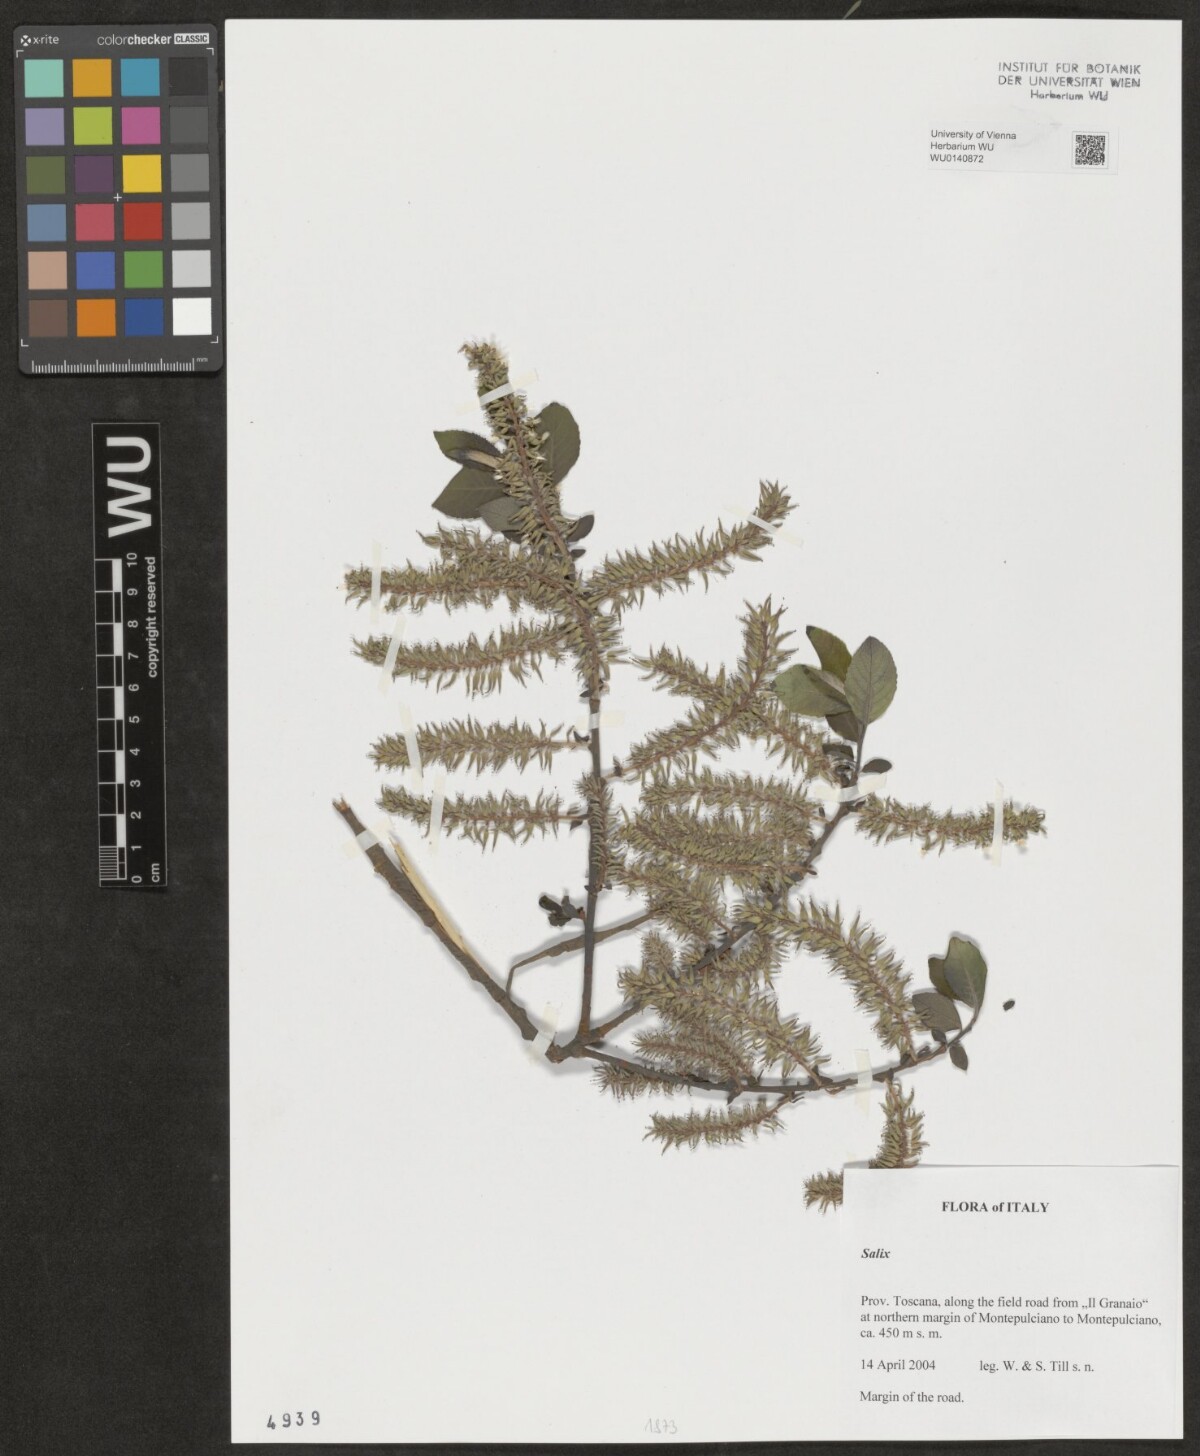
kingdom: Plantae
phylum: Tracheophyta
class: Magnoliopsida
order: Malpighiales
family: Salicaceae
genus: Salix
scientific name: Salix
